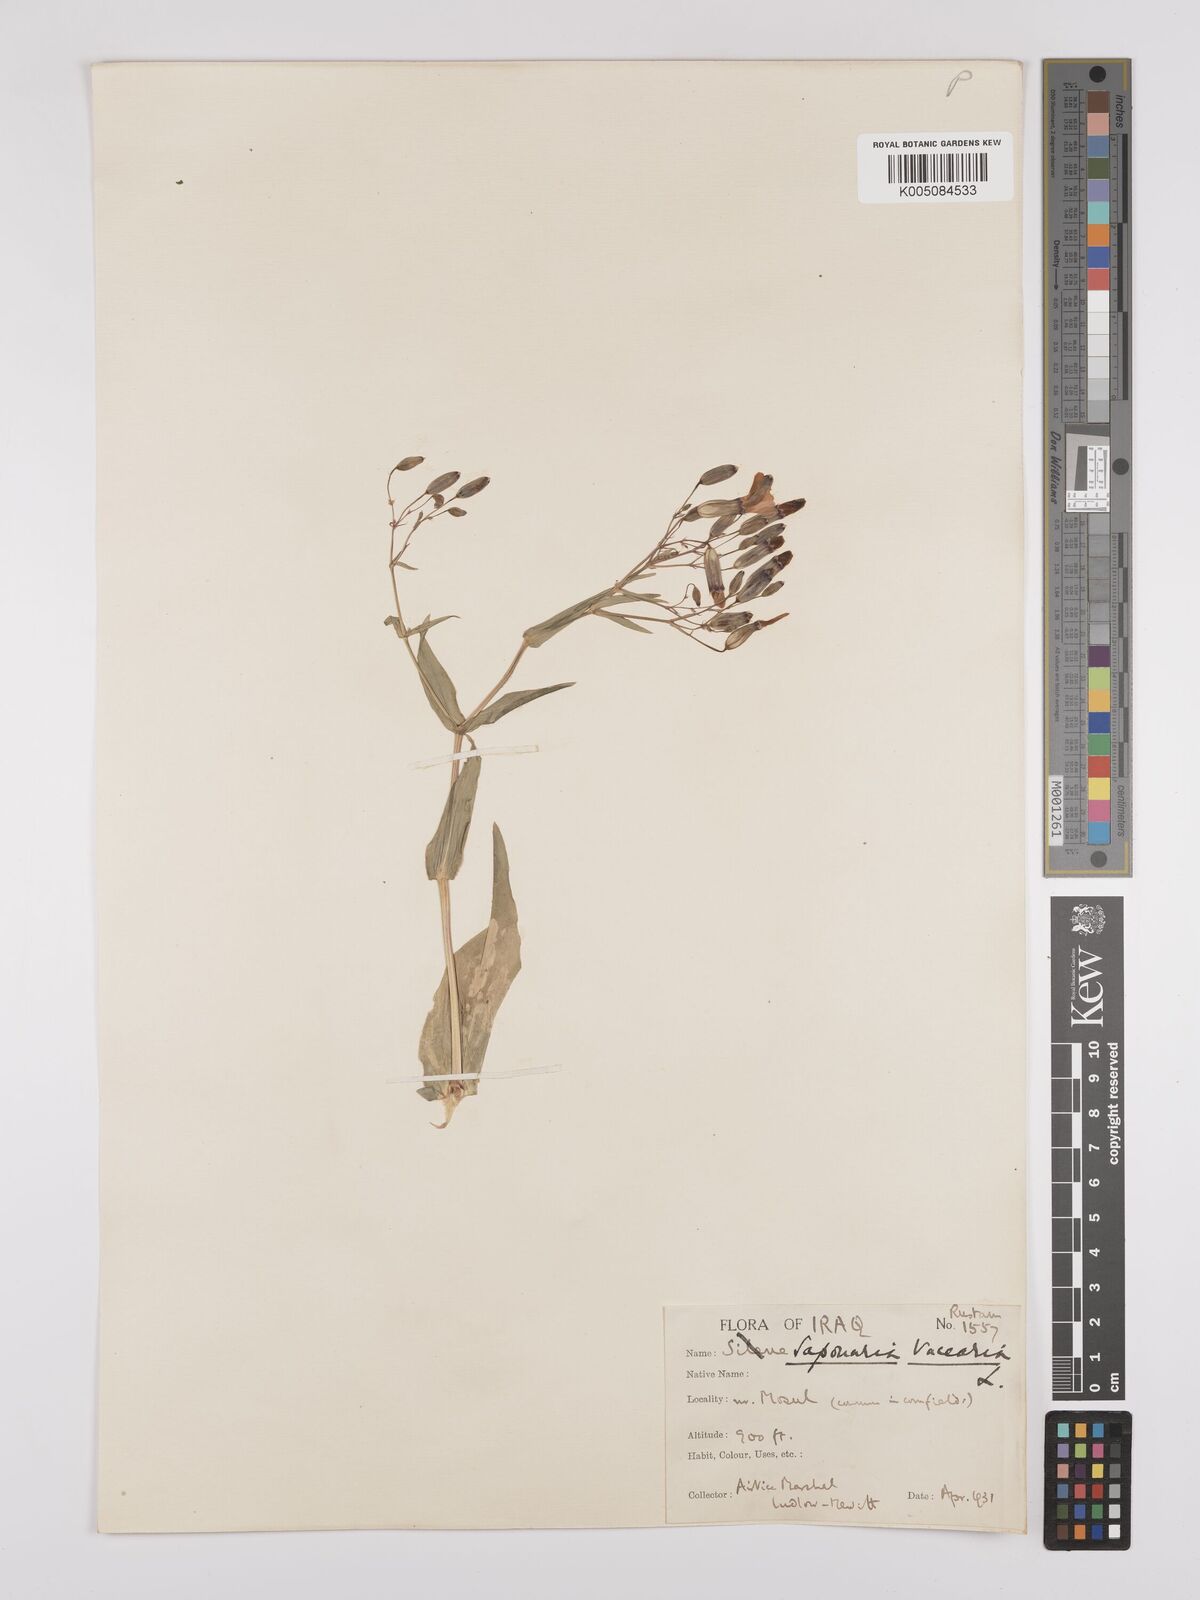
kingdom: Plantae
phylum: Tracheophyta
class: Magnoliopsida
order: Caryophyllales
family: Caryophyllaceae
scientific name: Caryophyllaceae
